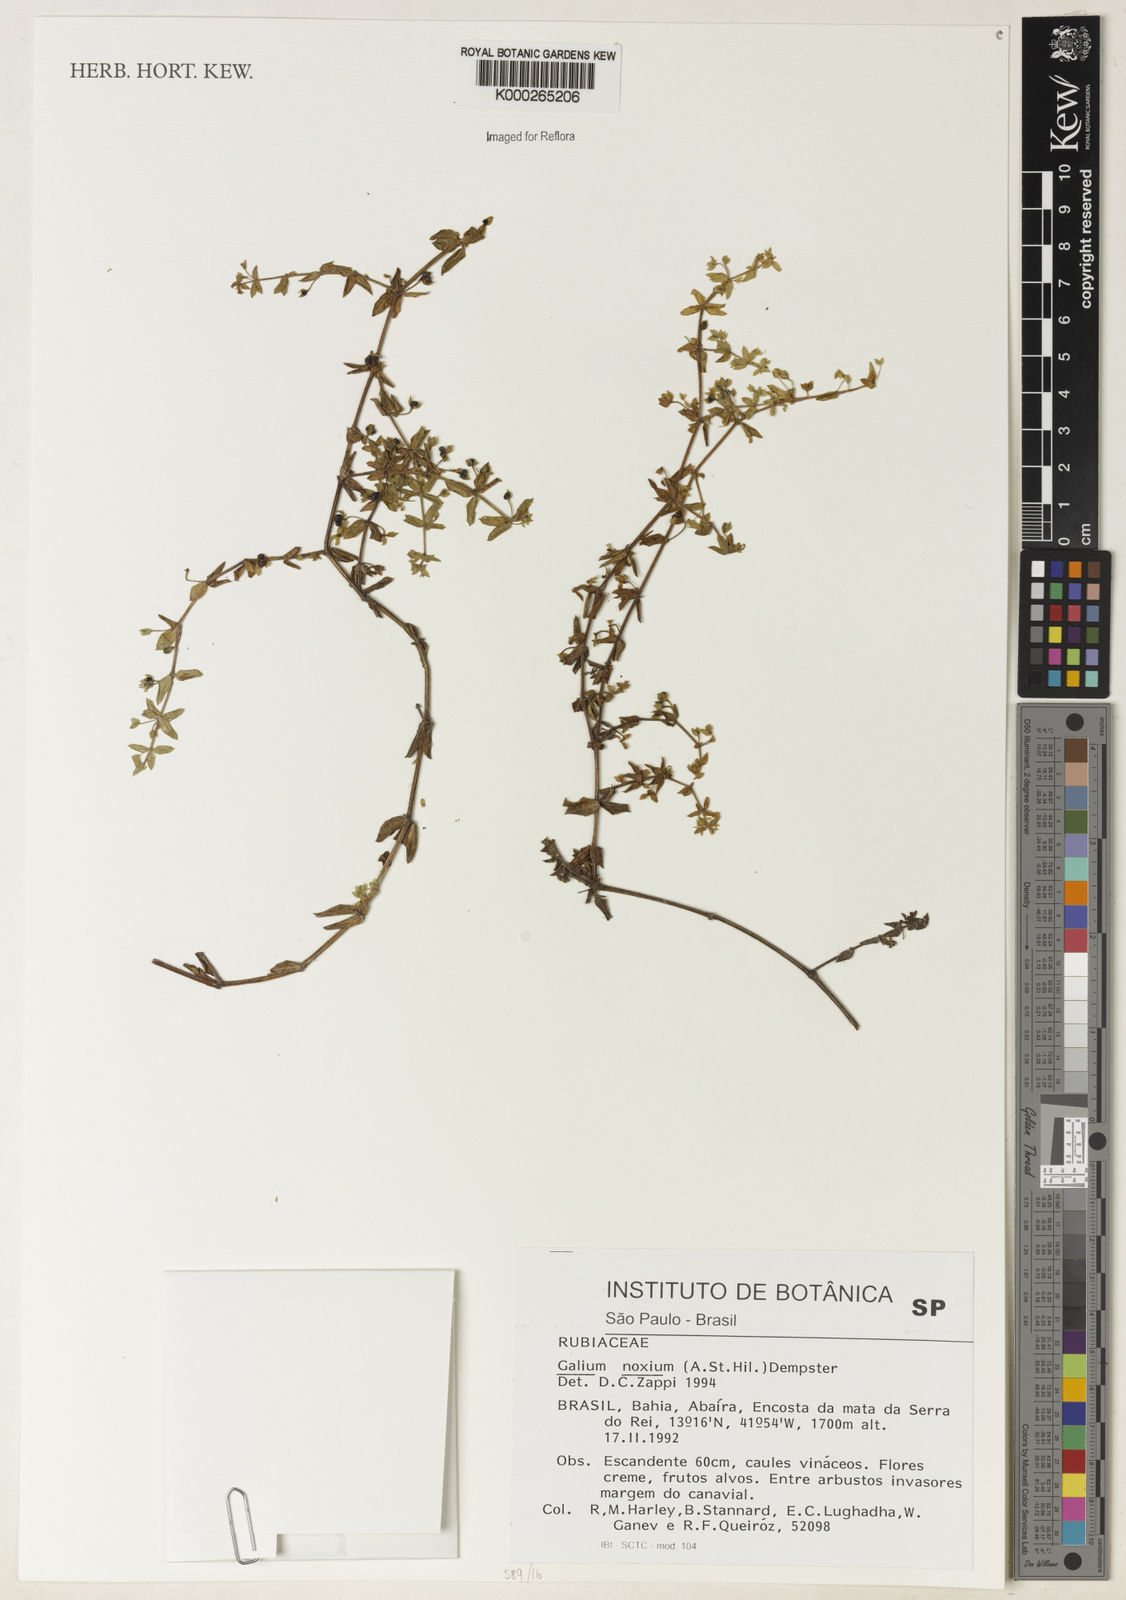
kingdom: Plantae
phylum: Tracheophyta
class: Magnoliopsida
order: Gentianales
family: Rubiaceae
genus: Galium
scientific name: Galium noxium
